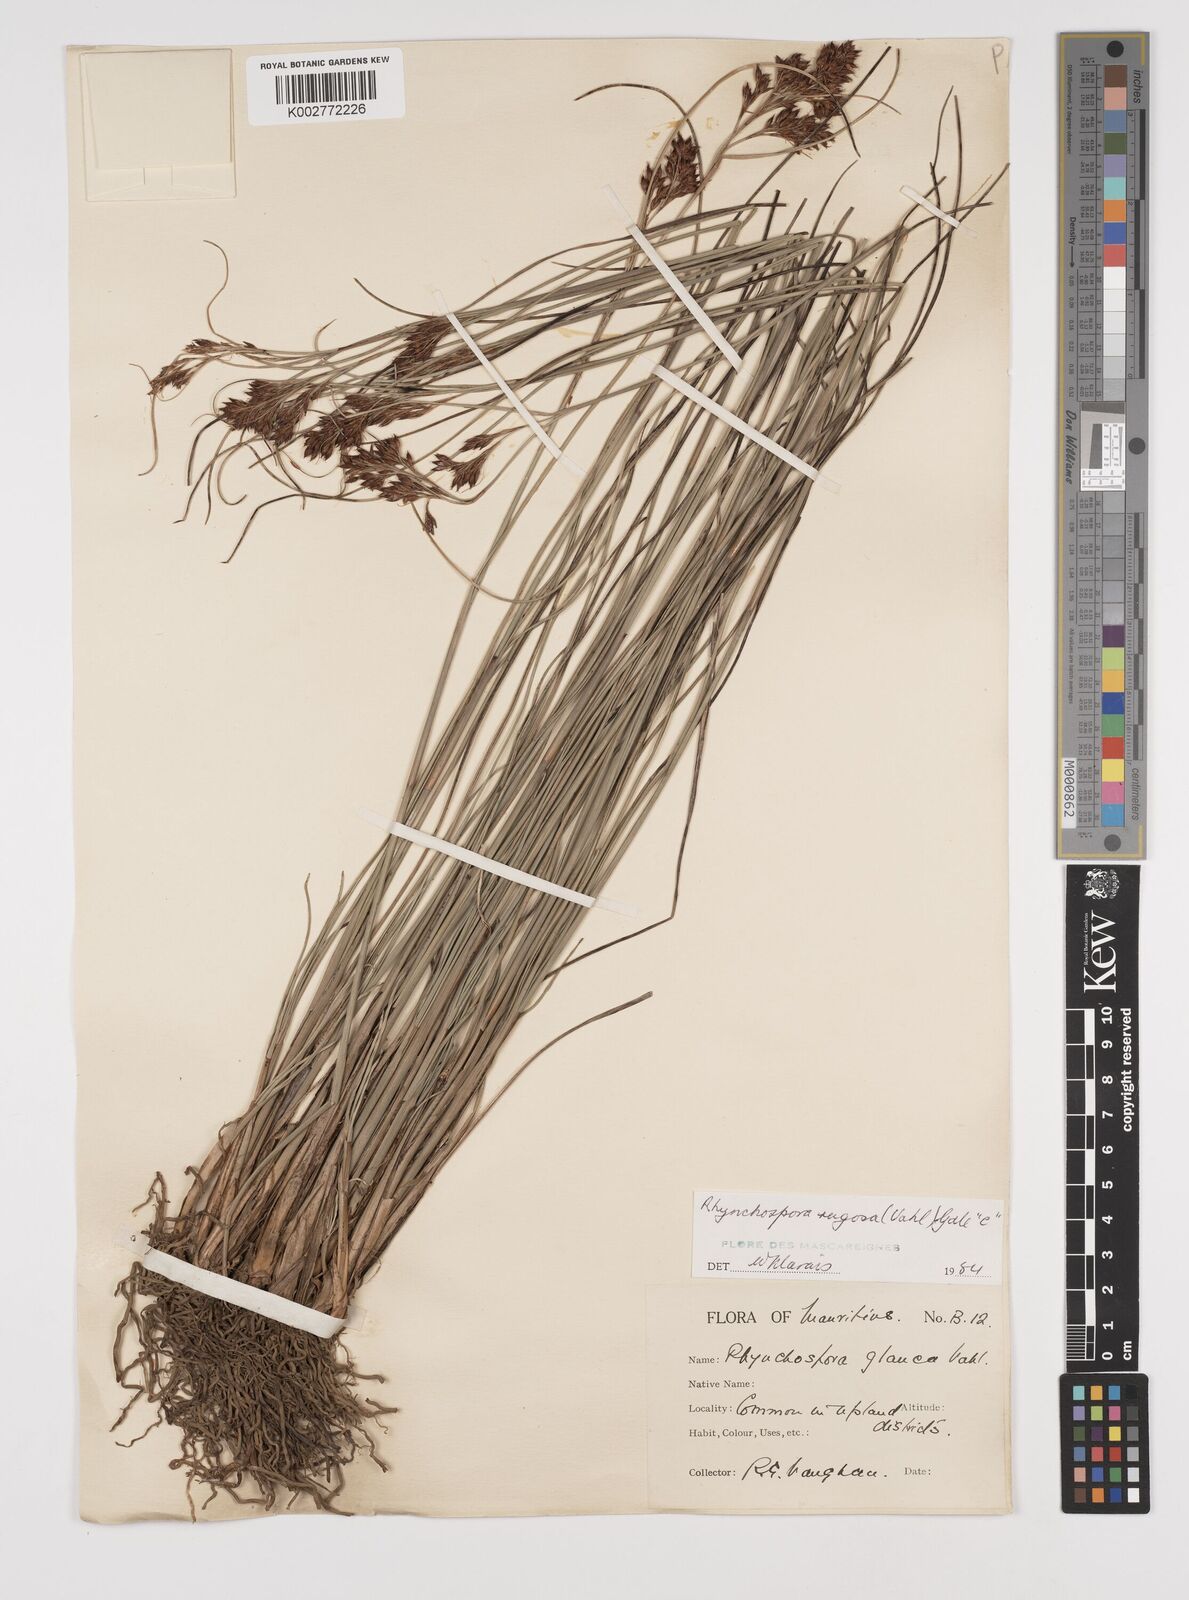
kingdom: Plantae
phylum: Tracheophyta
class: Liliopsida
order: Poales
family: Cyperaceae
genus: Rhynchospora
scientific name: Rhynchospora rugosa
